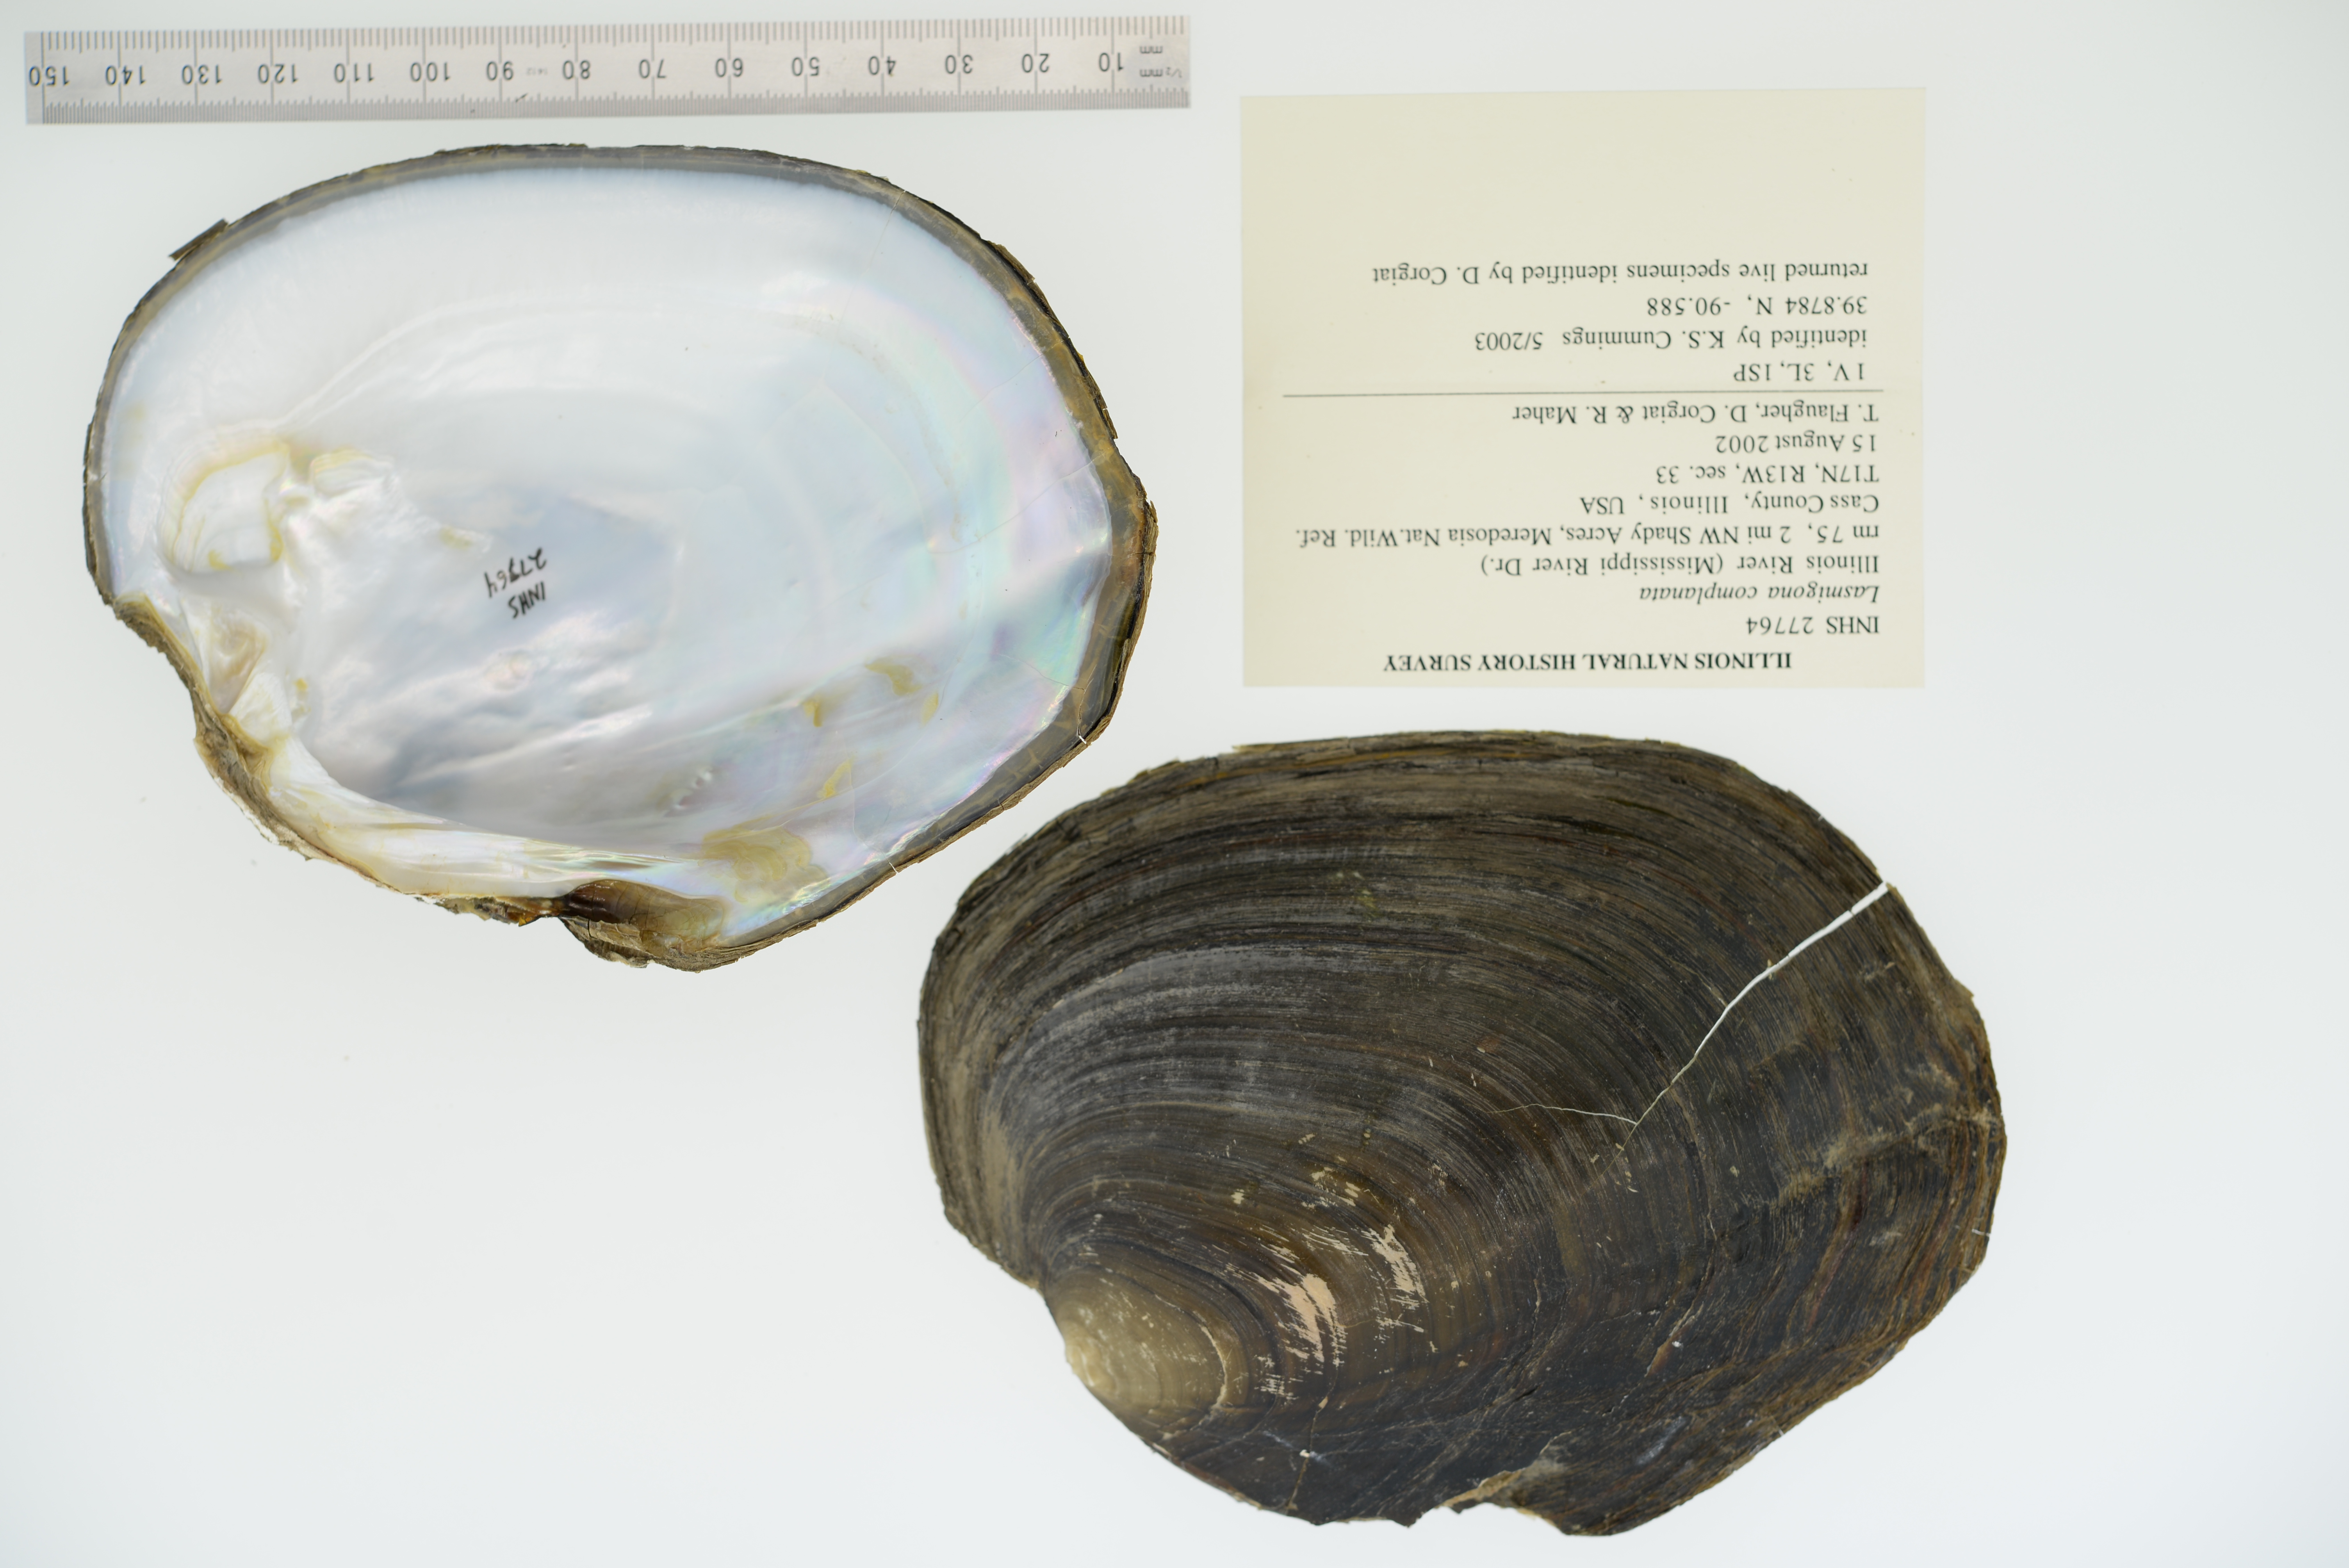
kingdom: Animalia
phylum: Mollusca
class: Bivalvia
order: Unionida
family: Unionidae
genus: Lasmigona
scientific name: Lasmigona complanata
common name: White heelsplitter
